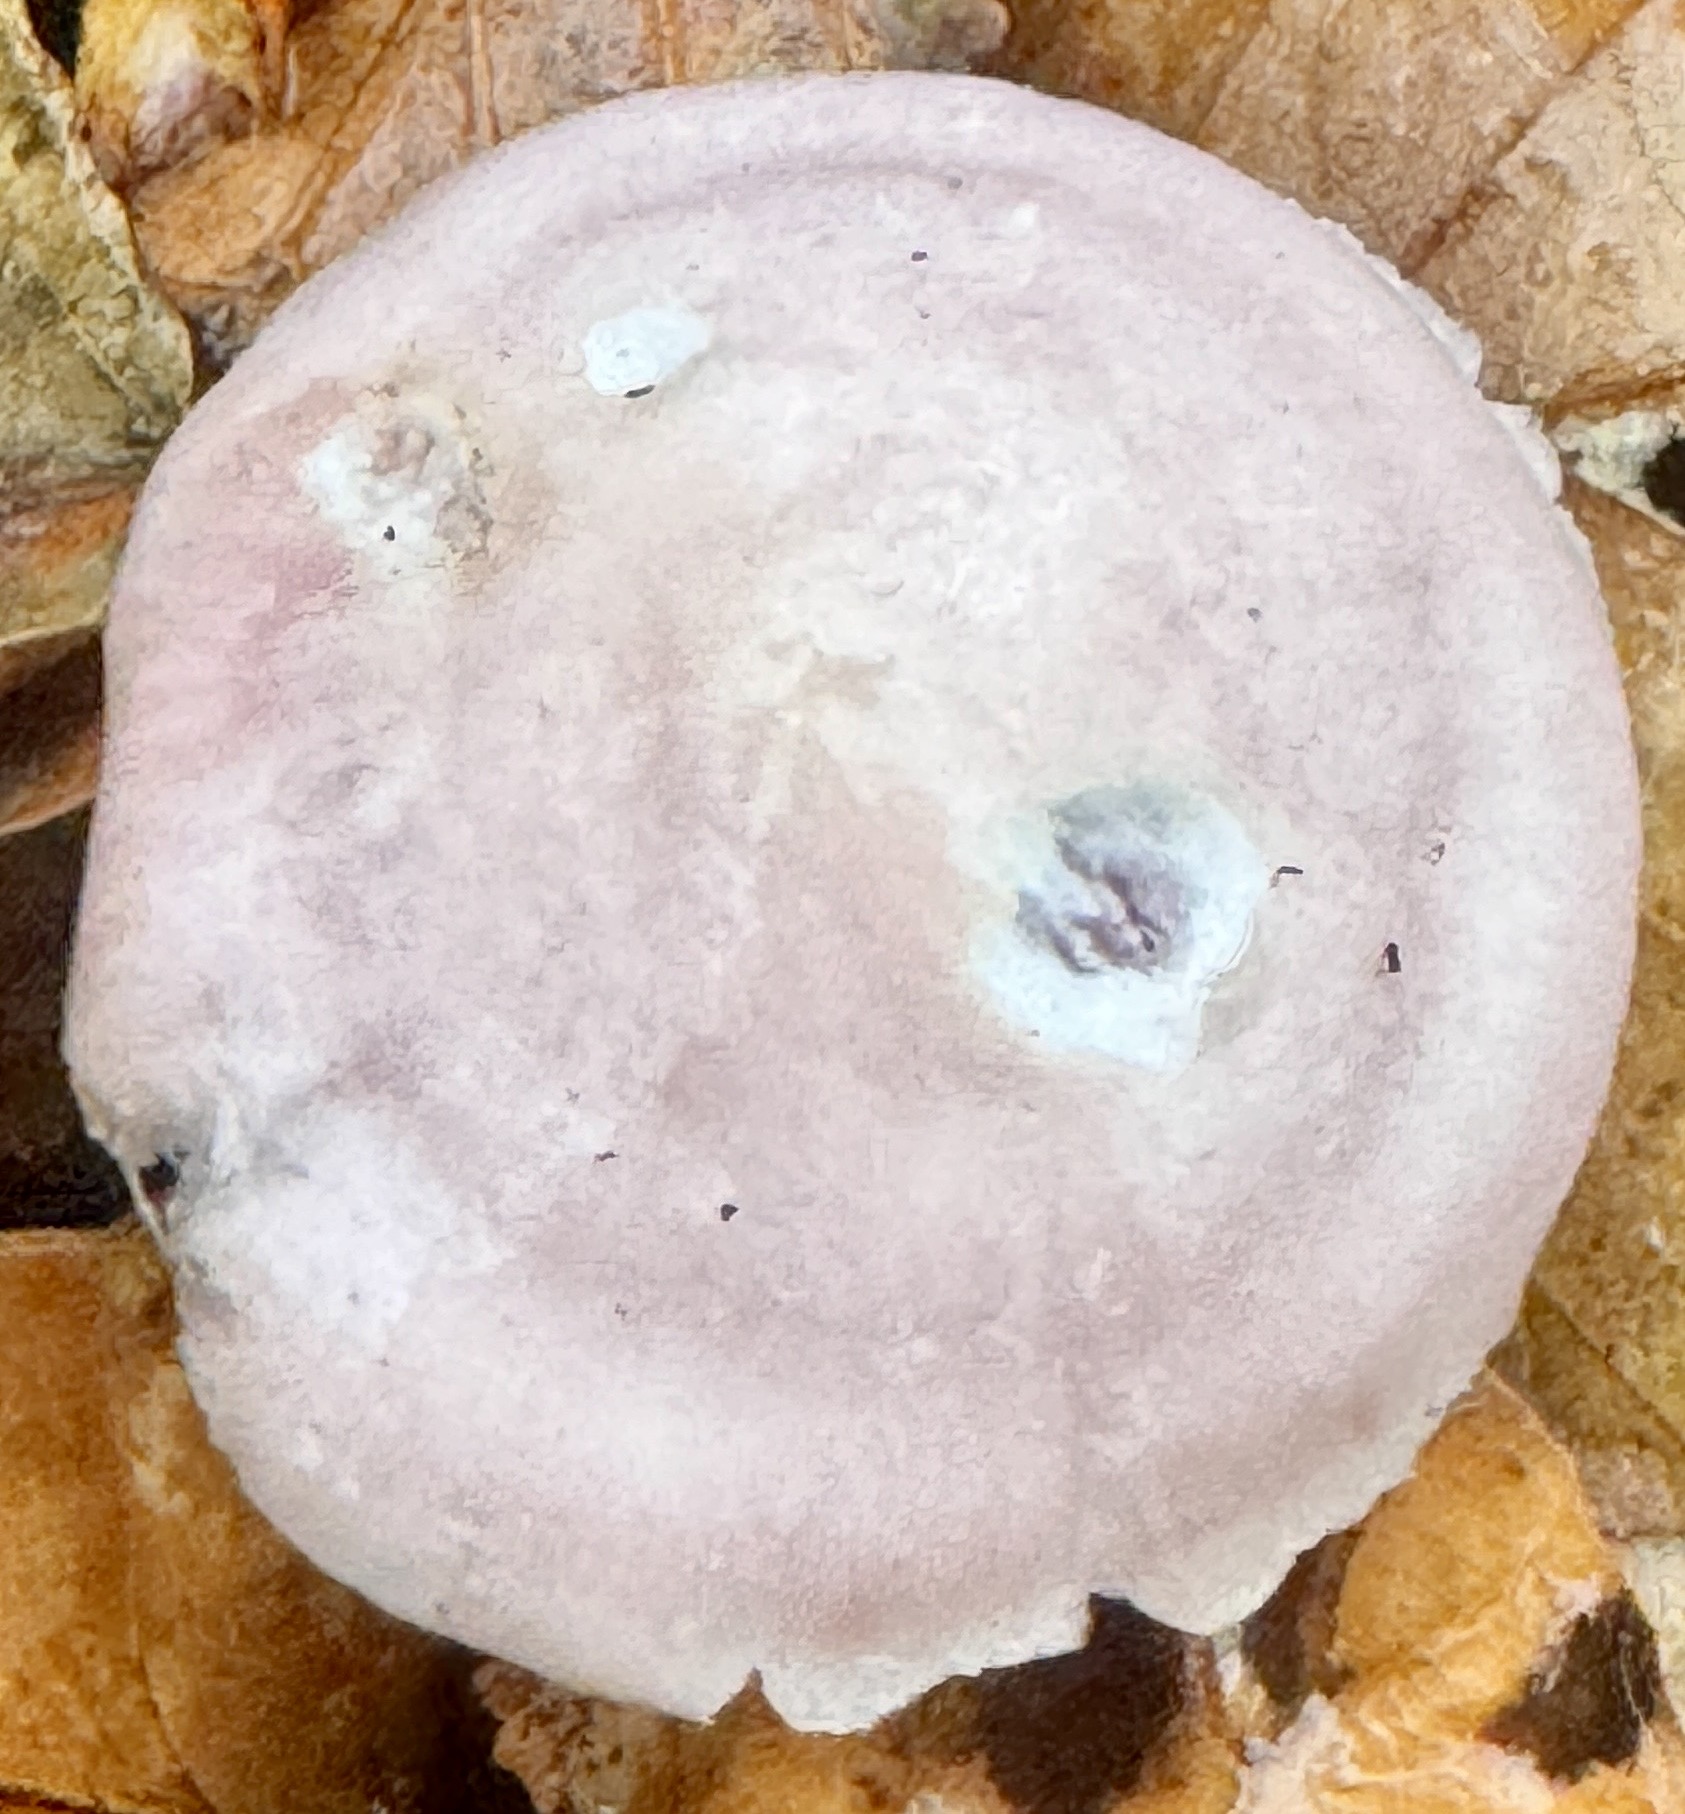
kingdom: Fungi
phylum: Basidiomycota
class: Agaricomycetes
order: Agaricales
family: Mycenaceae
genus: Mycena
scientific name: Mycena rosea
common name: rosa huesvamp
